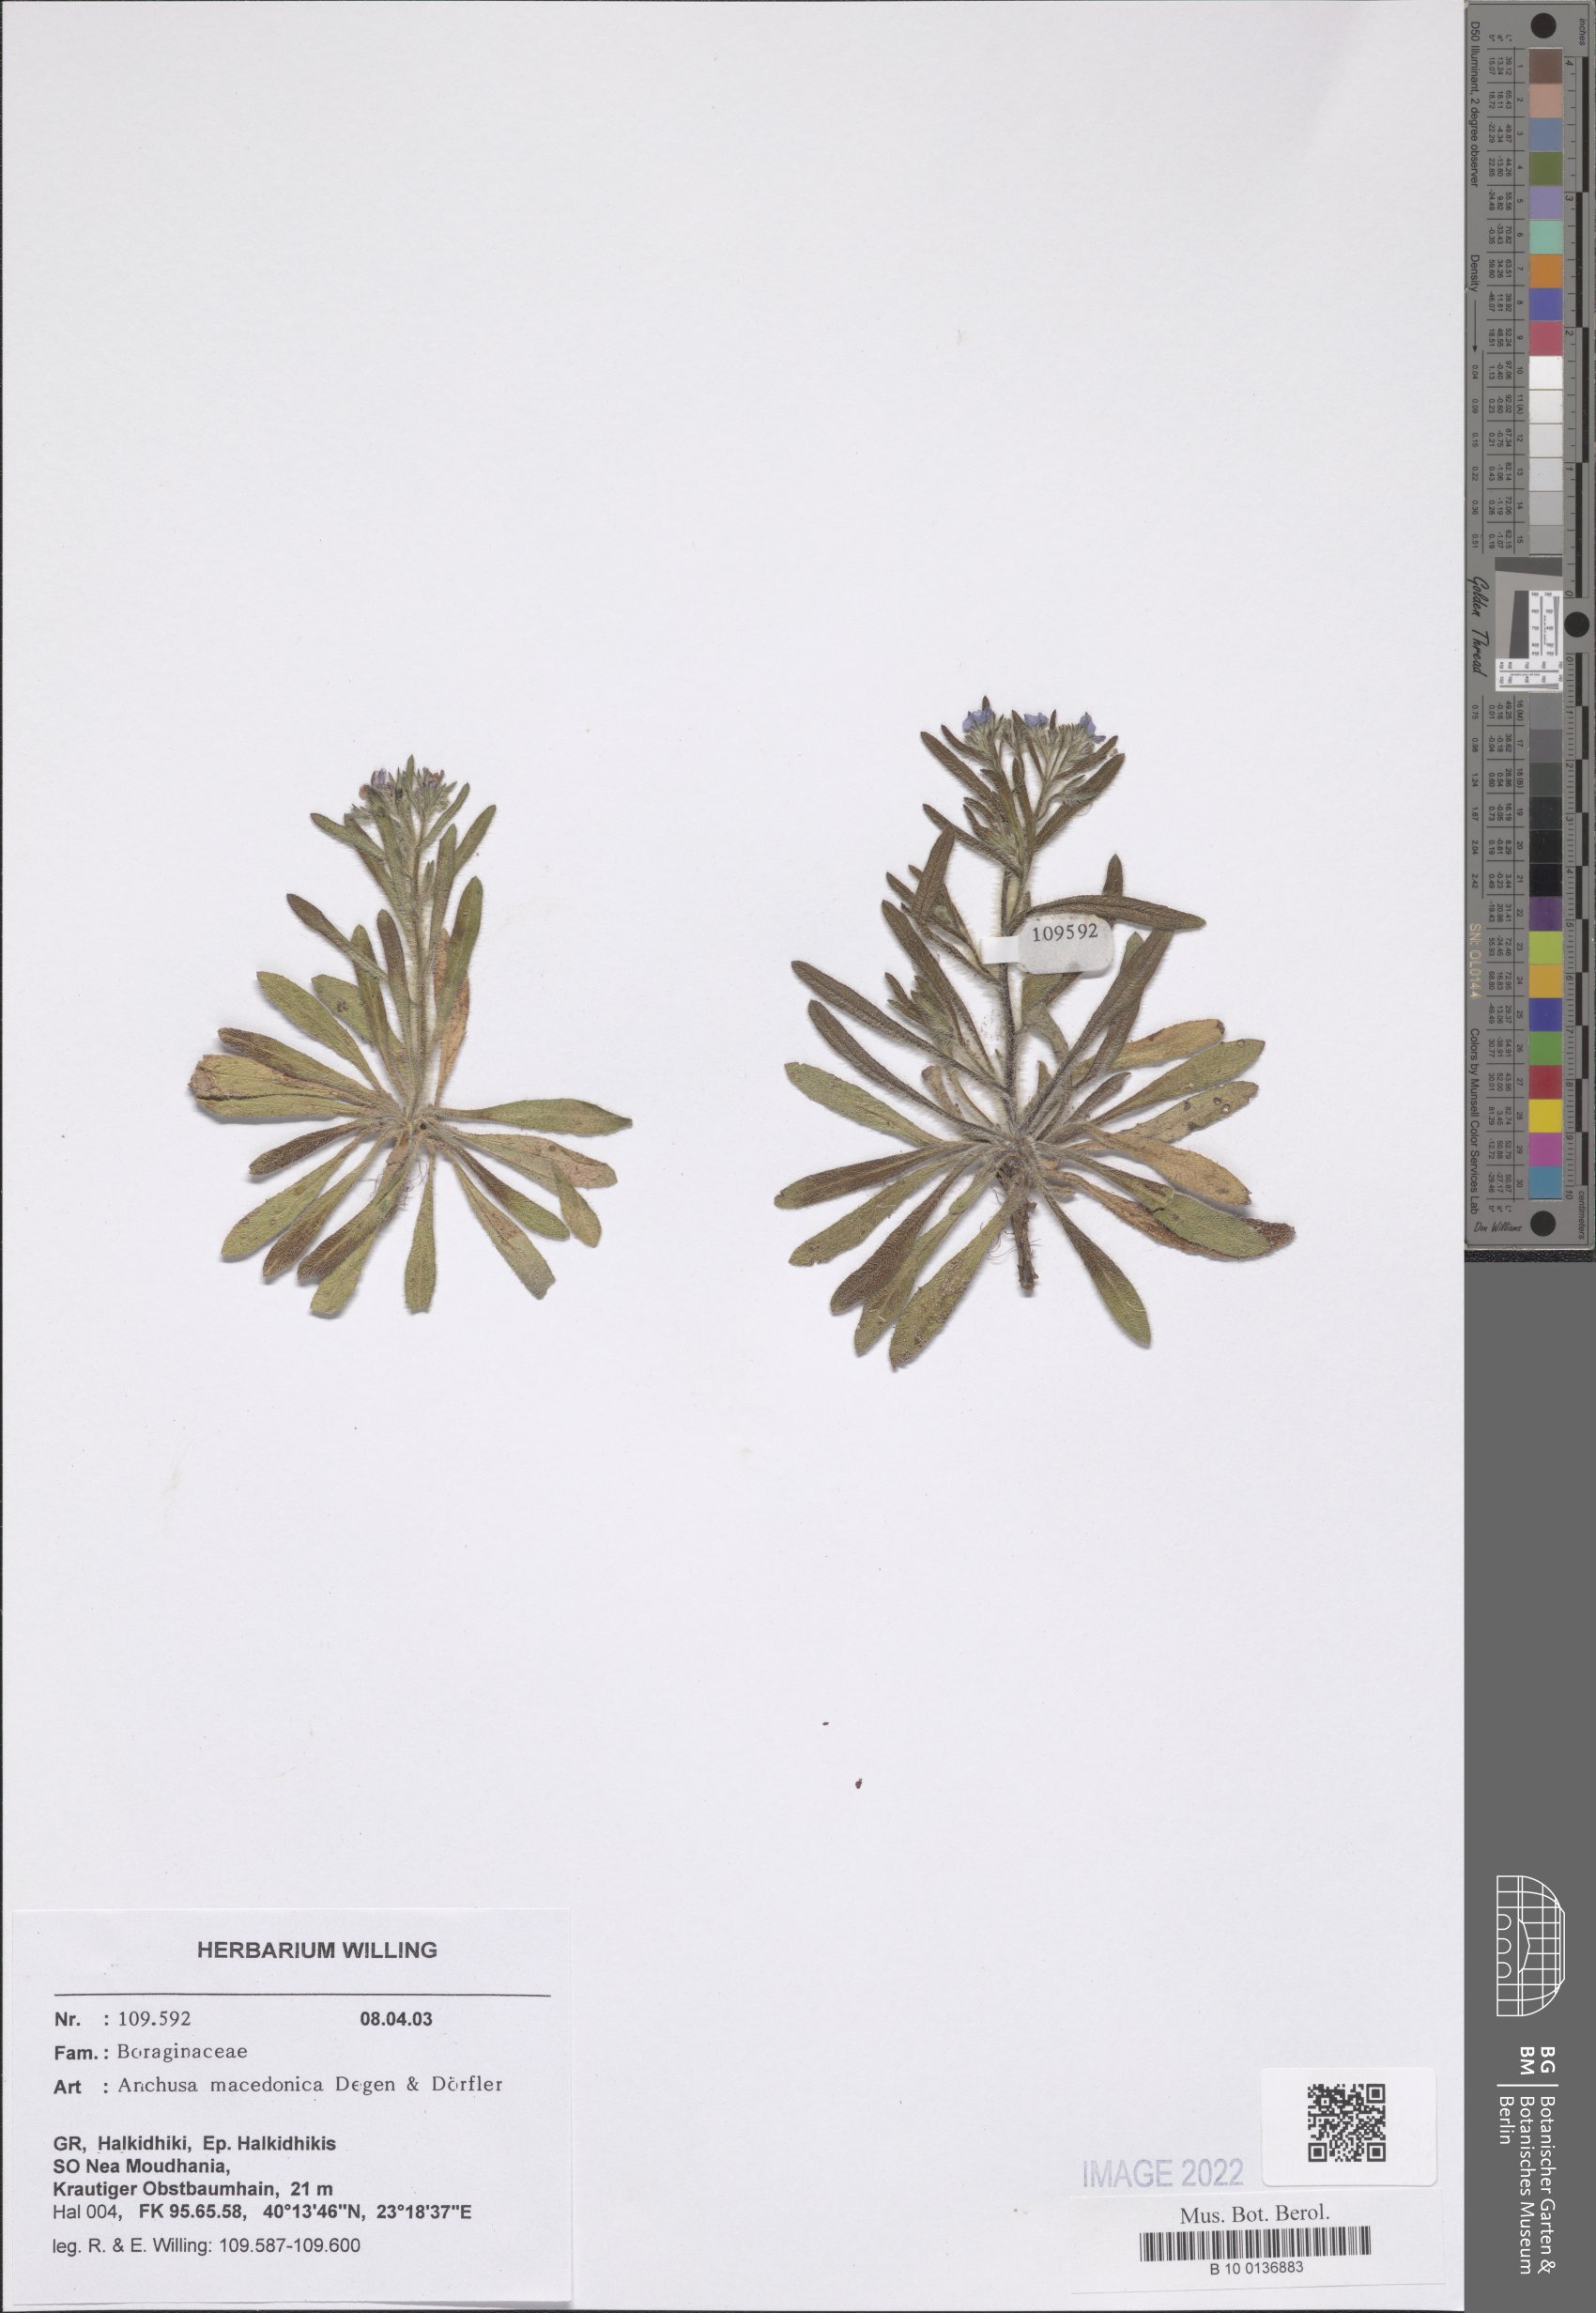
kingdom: Plantae
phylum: Tracheophyta
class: Magnoliopsida
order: Boraginales
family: Boraginaceae
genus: Anchusa
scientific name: Anchusa officinalis
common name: Alkanet
